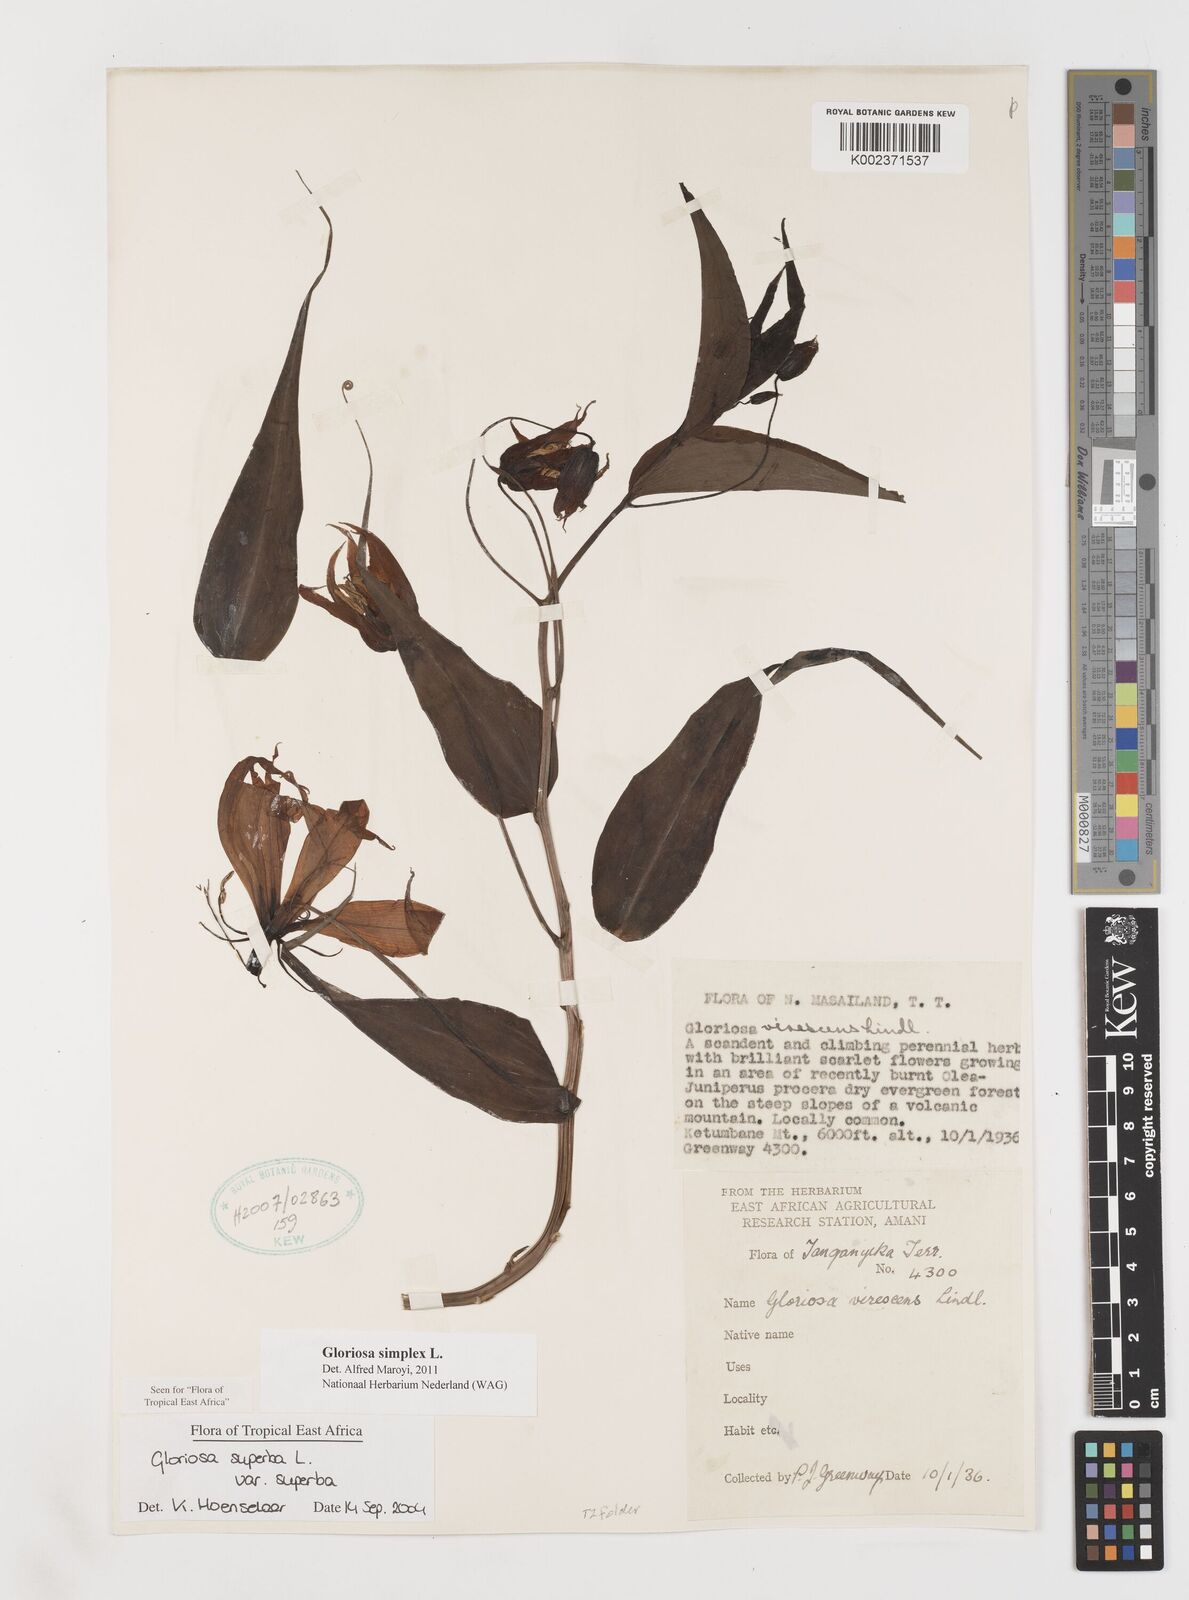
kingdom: Plantae
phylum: Tracheophyta
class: Liliopsida
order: Liliales
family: Colchicaceae
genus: Gloriosa
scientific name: Gloriosa simplex
